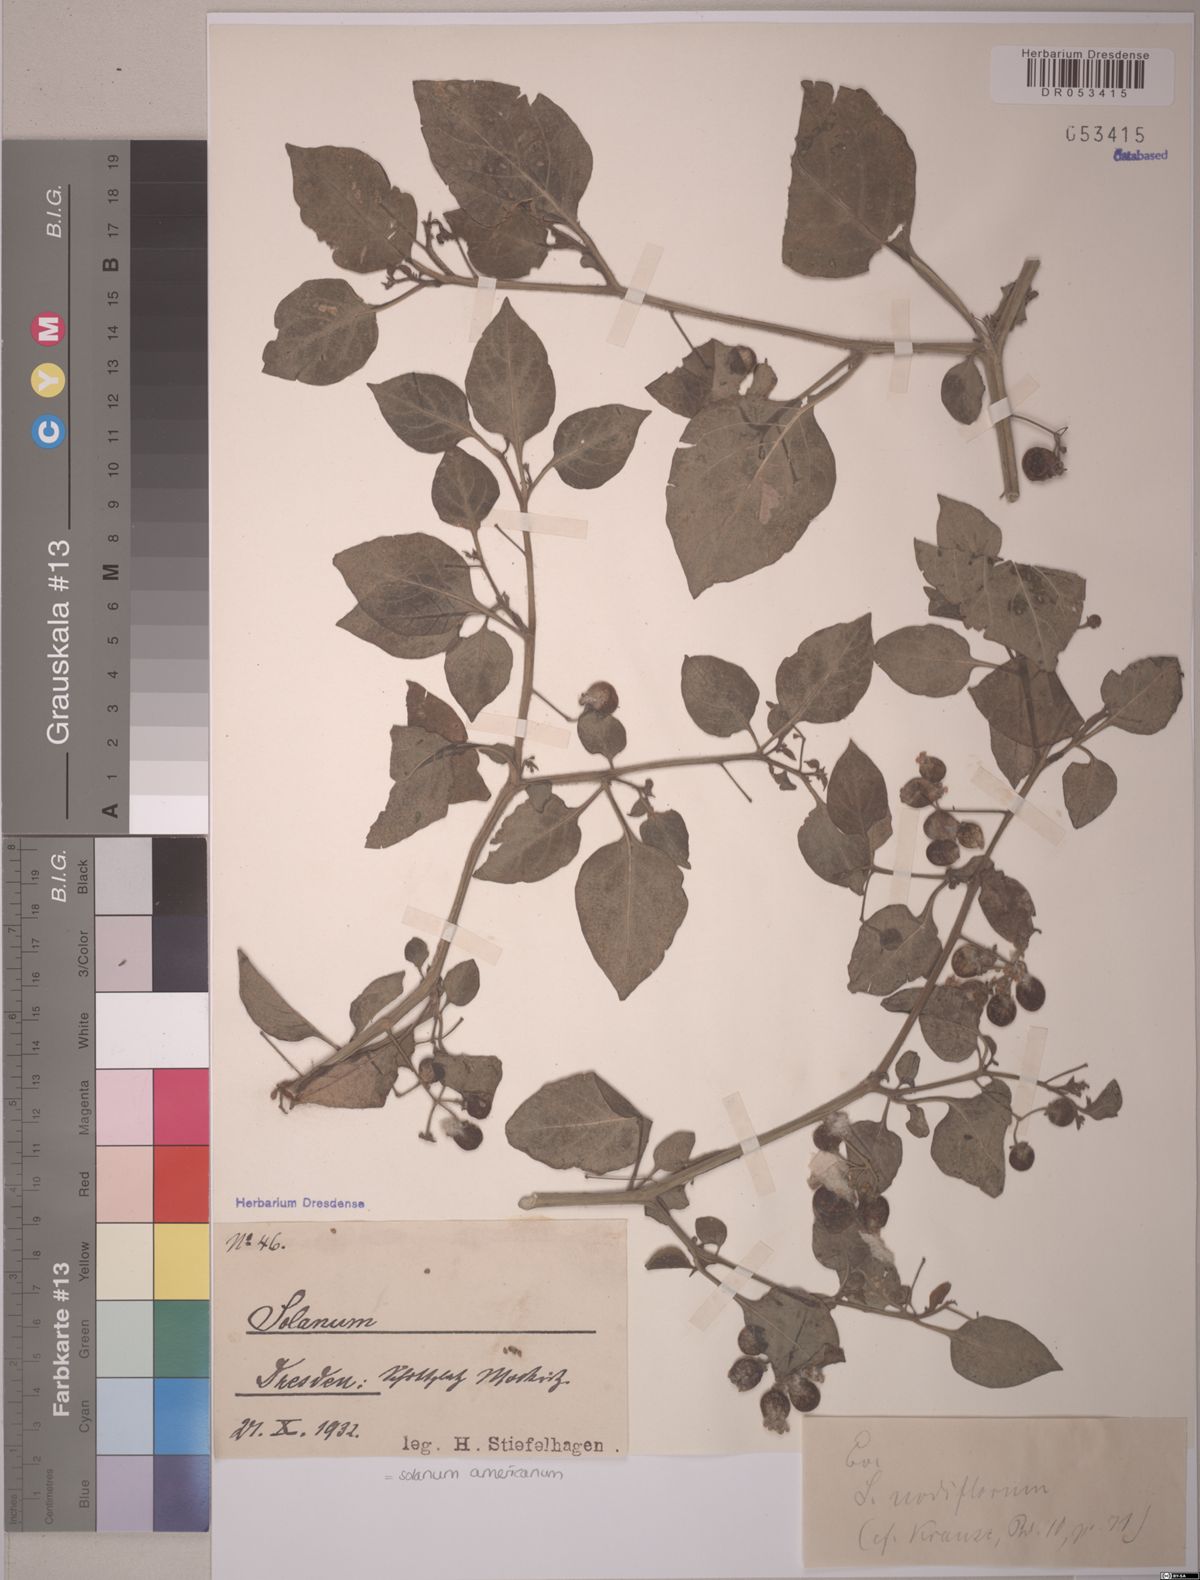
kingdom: Plantae
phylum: Tracheophyta
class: Magnoliopsida
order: Solanales
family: Solanaceae
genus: Solanum
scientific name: Solanum americanum
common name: American black nightshade
